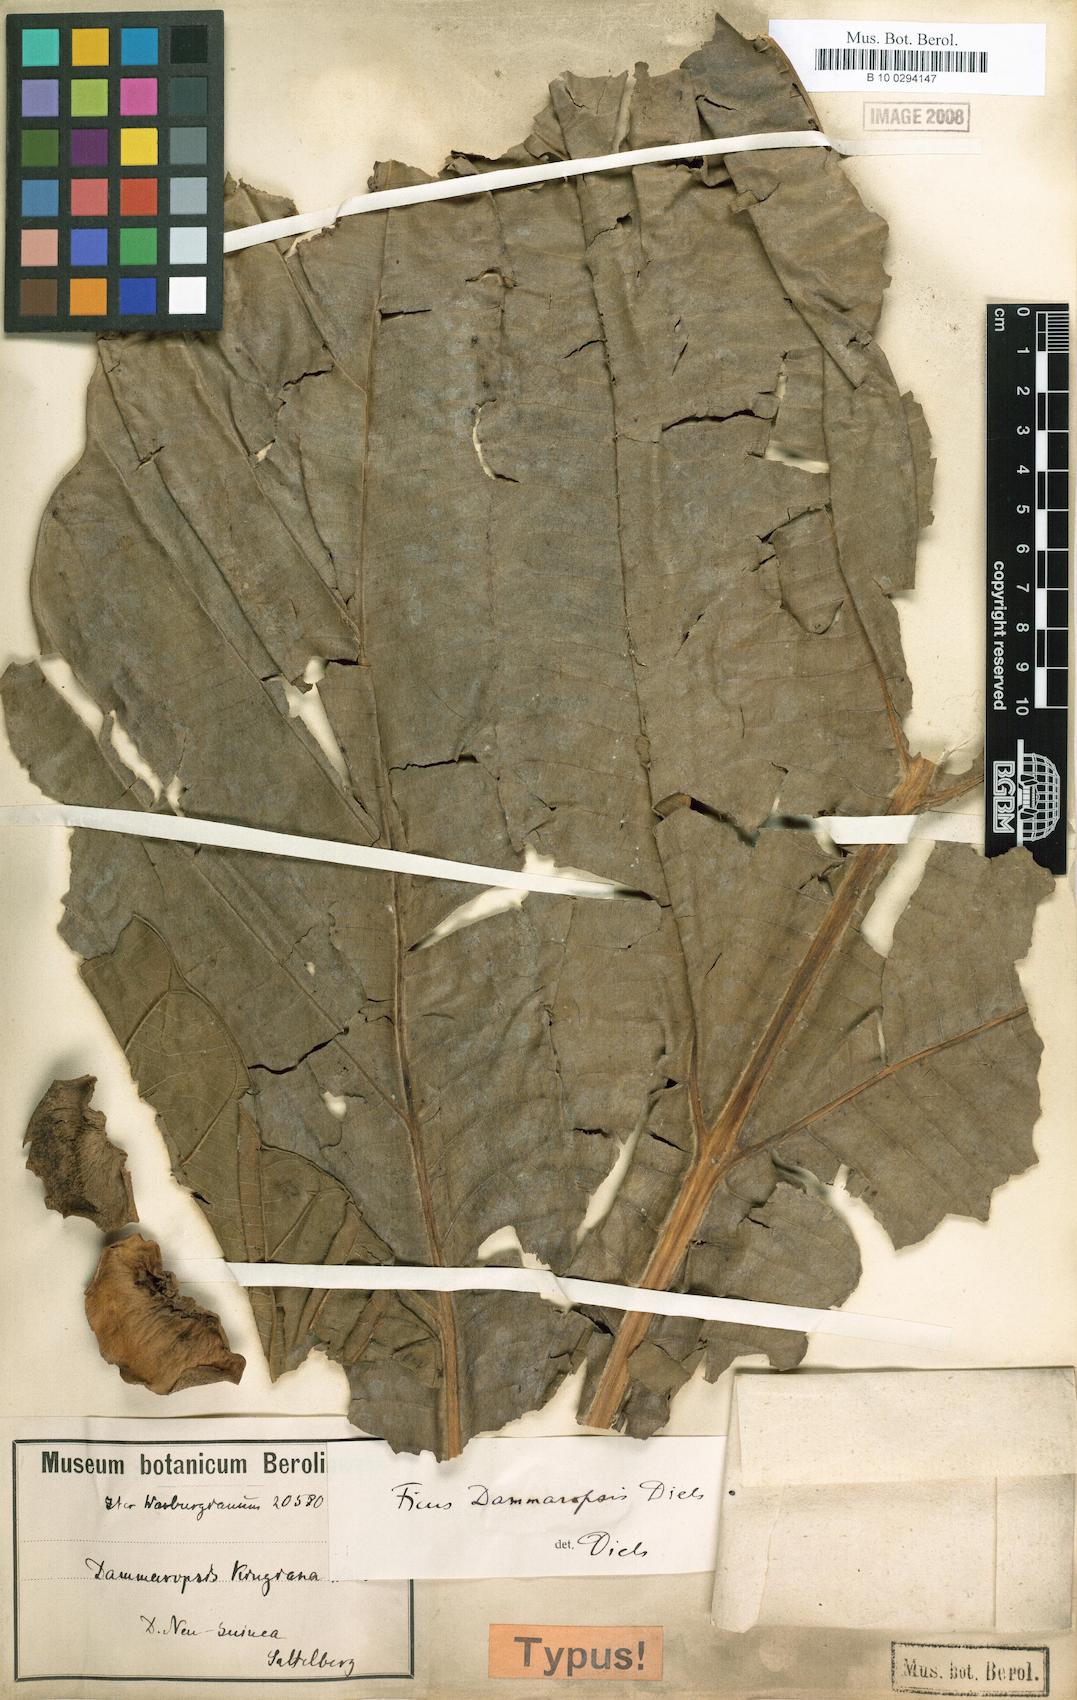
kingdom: Plantae
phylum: Tracheophyta
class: Magnoliopsida
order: Rosales
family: Moraceae
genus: Ficus
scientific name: Ficus dammaropsis
